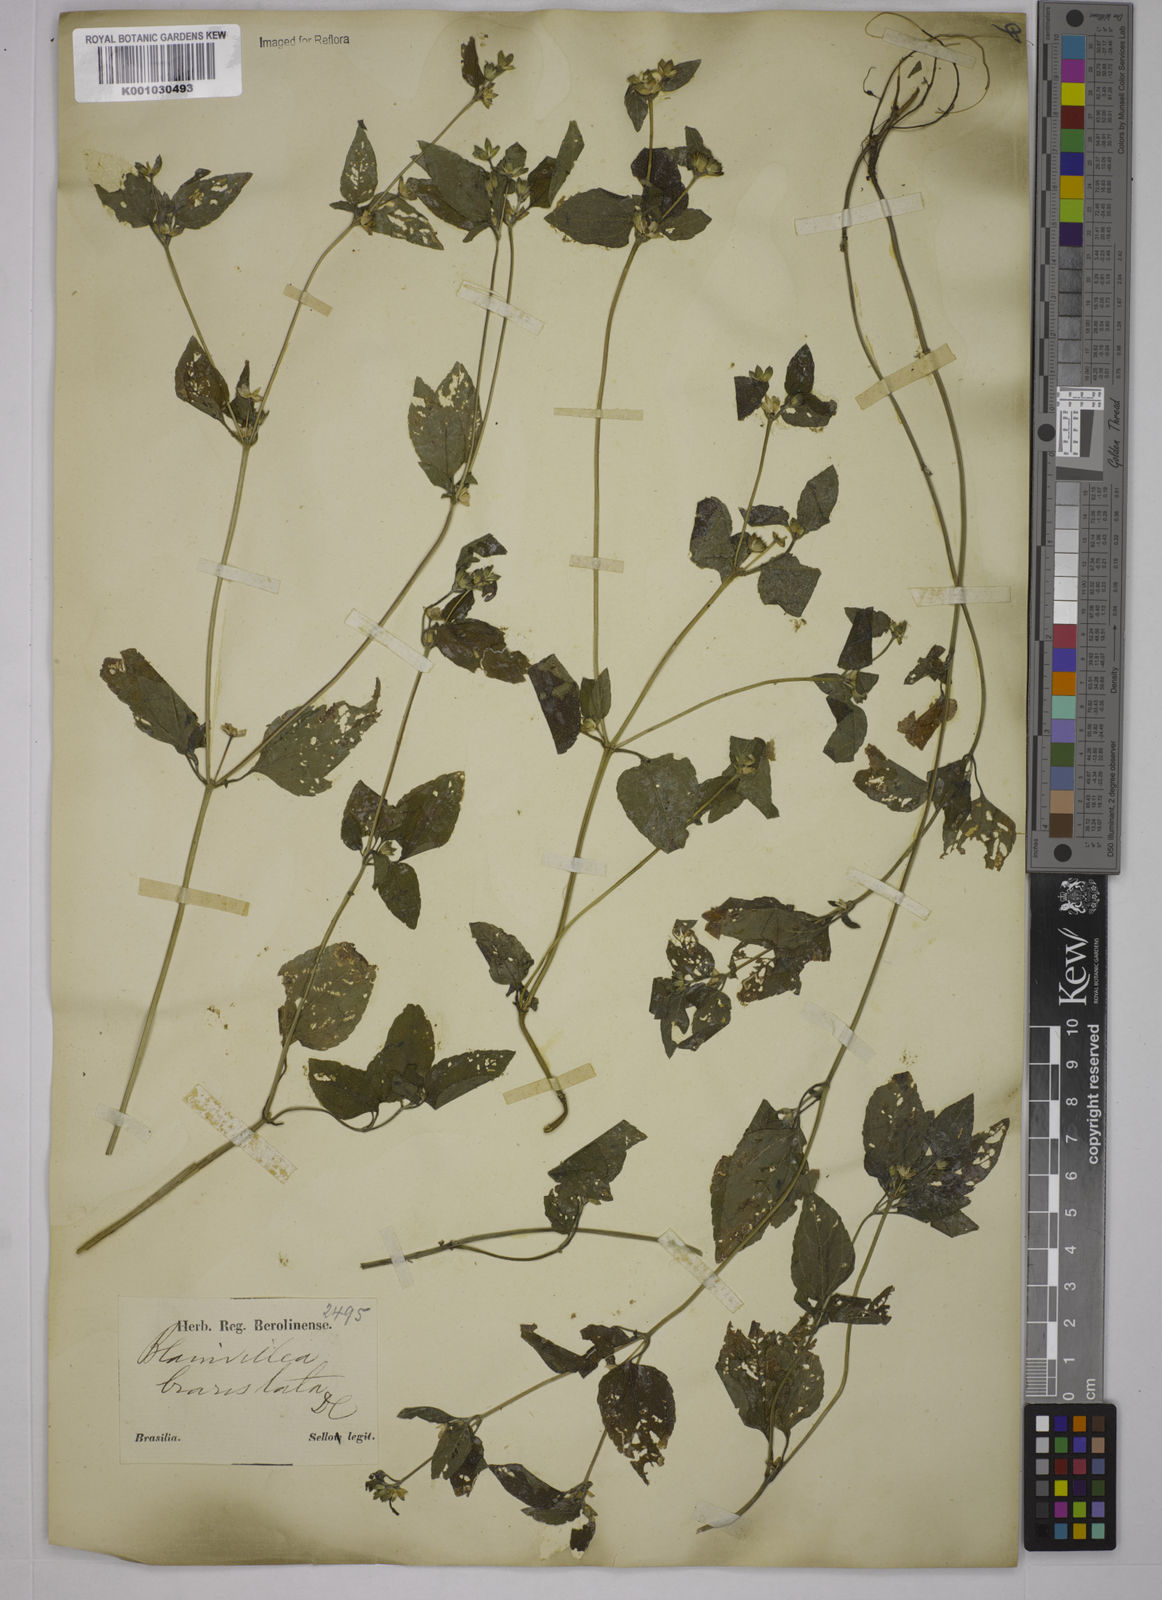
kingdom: Plantae
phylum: Tracheophyta
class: Magnoliopsida
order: Asterales
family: Asteraceae
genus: Blainvillea
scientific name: Blainvillea
